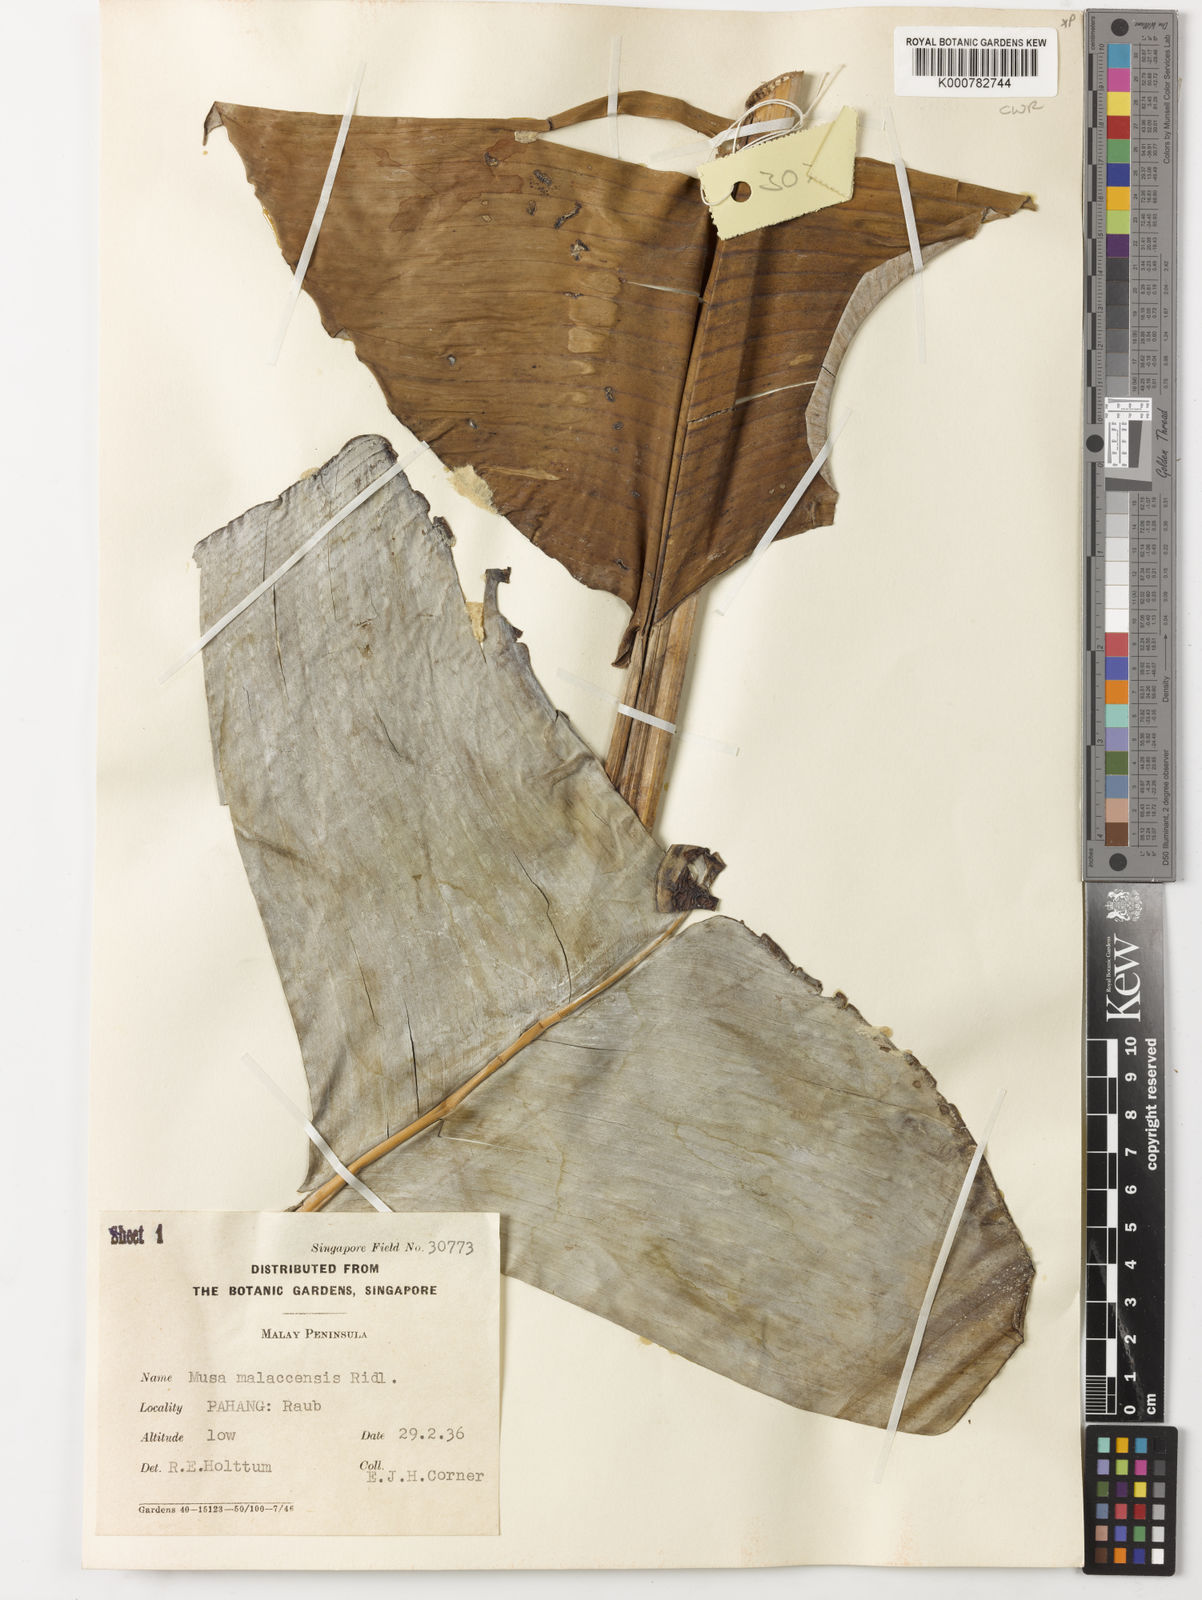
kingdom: Plantae
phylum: Tracheophyta
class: Liliopsida
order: Zingiberales
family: Musaceae
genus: Musa
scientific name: Musa acuminata
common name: Edible banana
